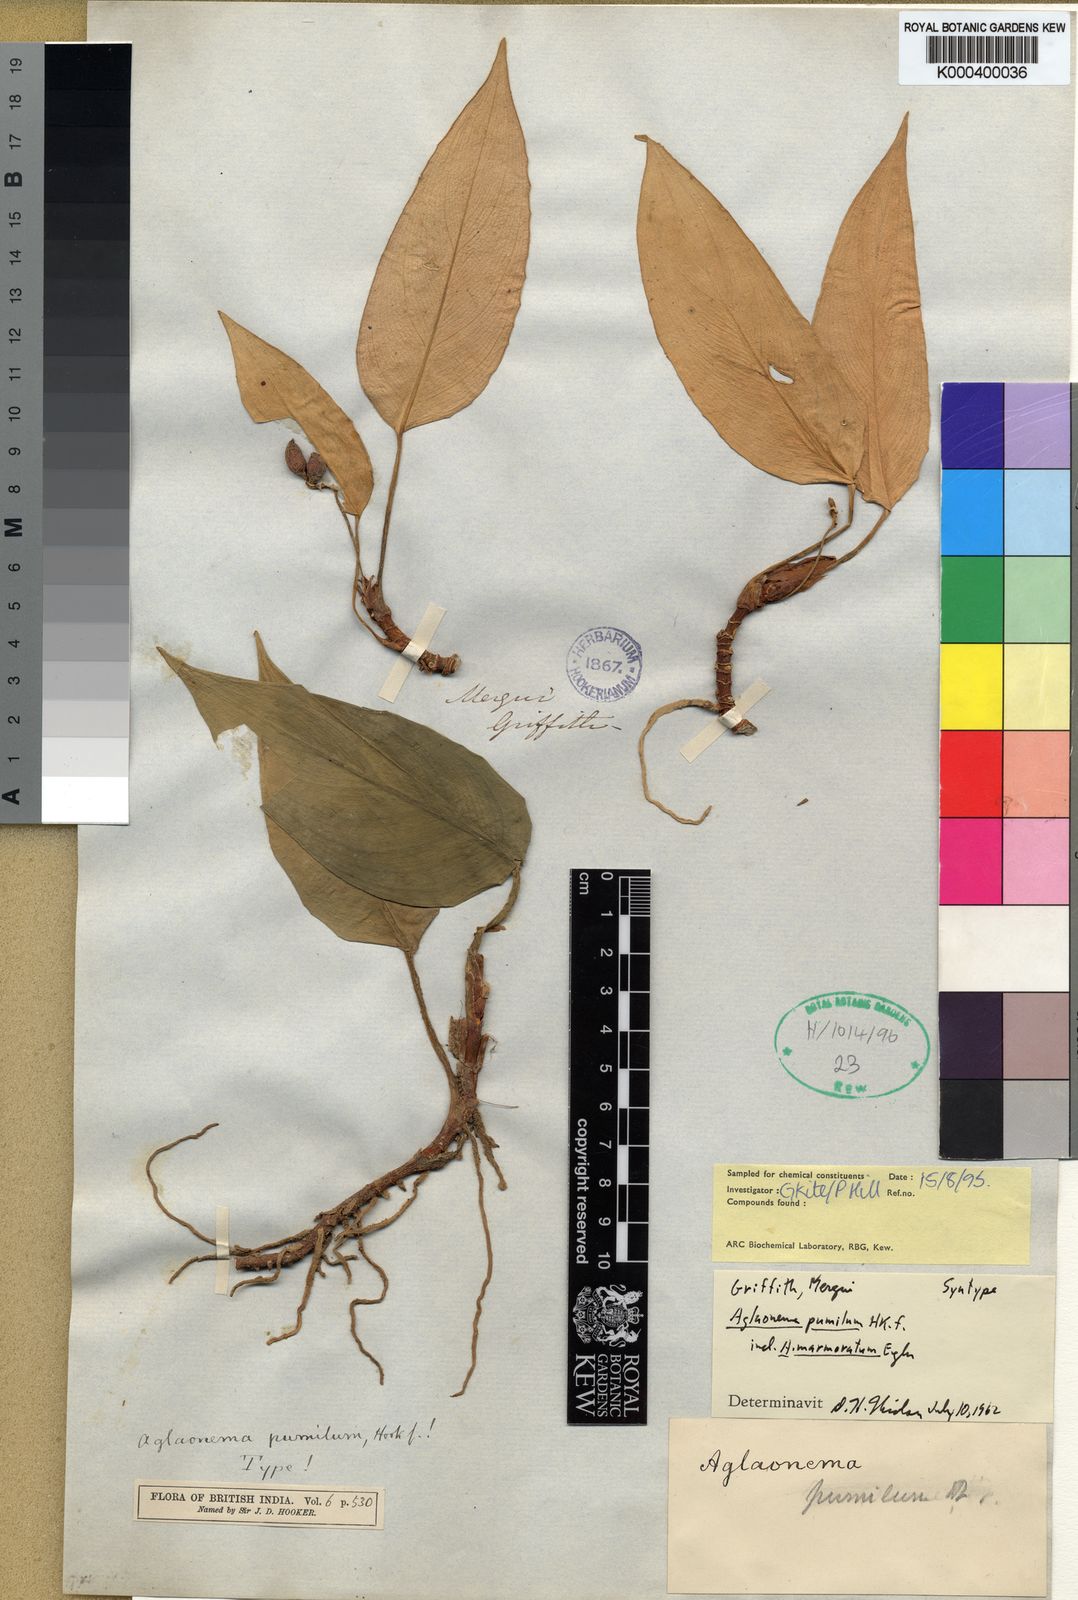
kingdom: Plantae
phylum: Tracheophyta
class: Liliopsida
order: Alismatales
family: Araceae
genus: Aglaonema
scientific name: Aglaonema pumilum
